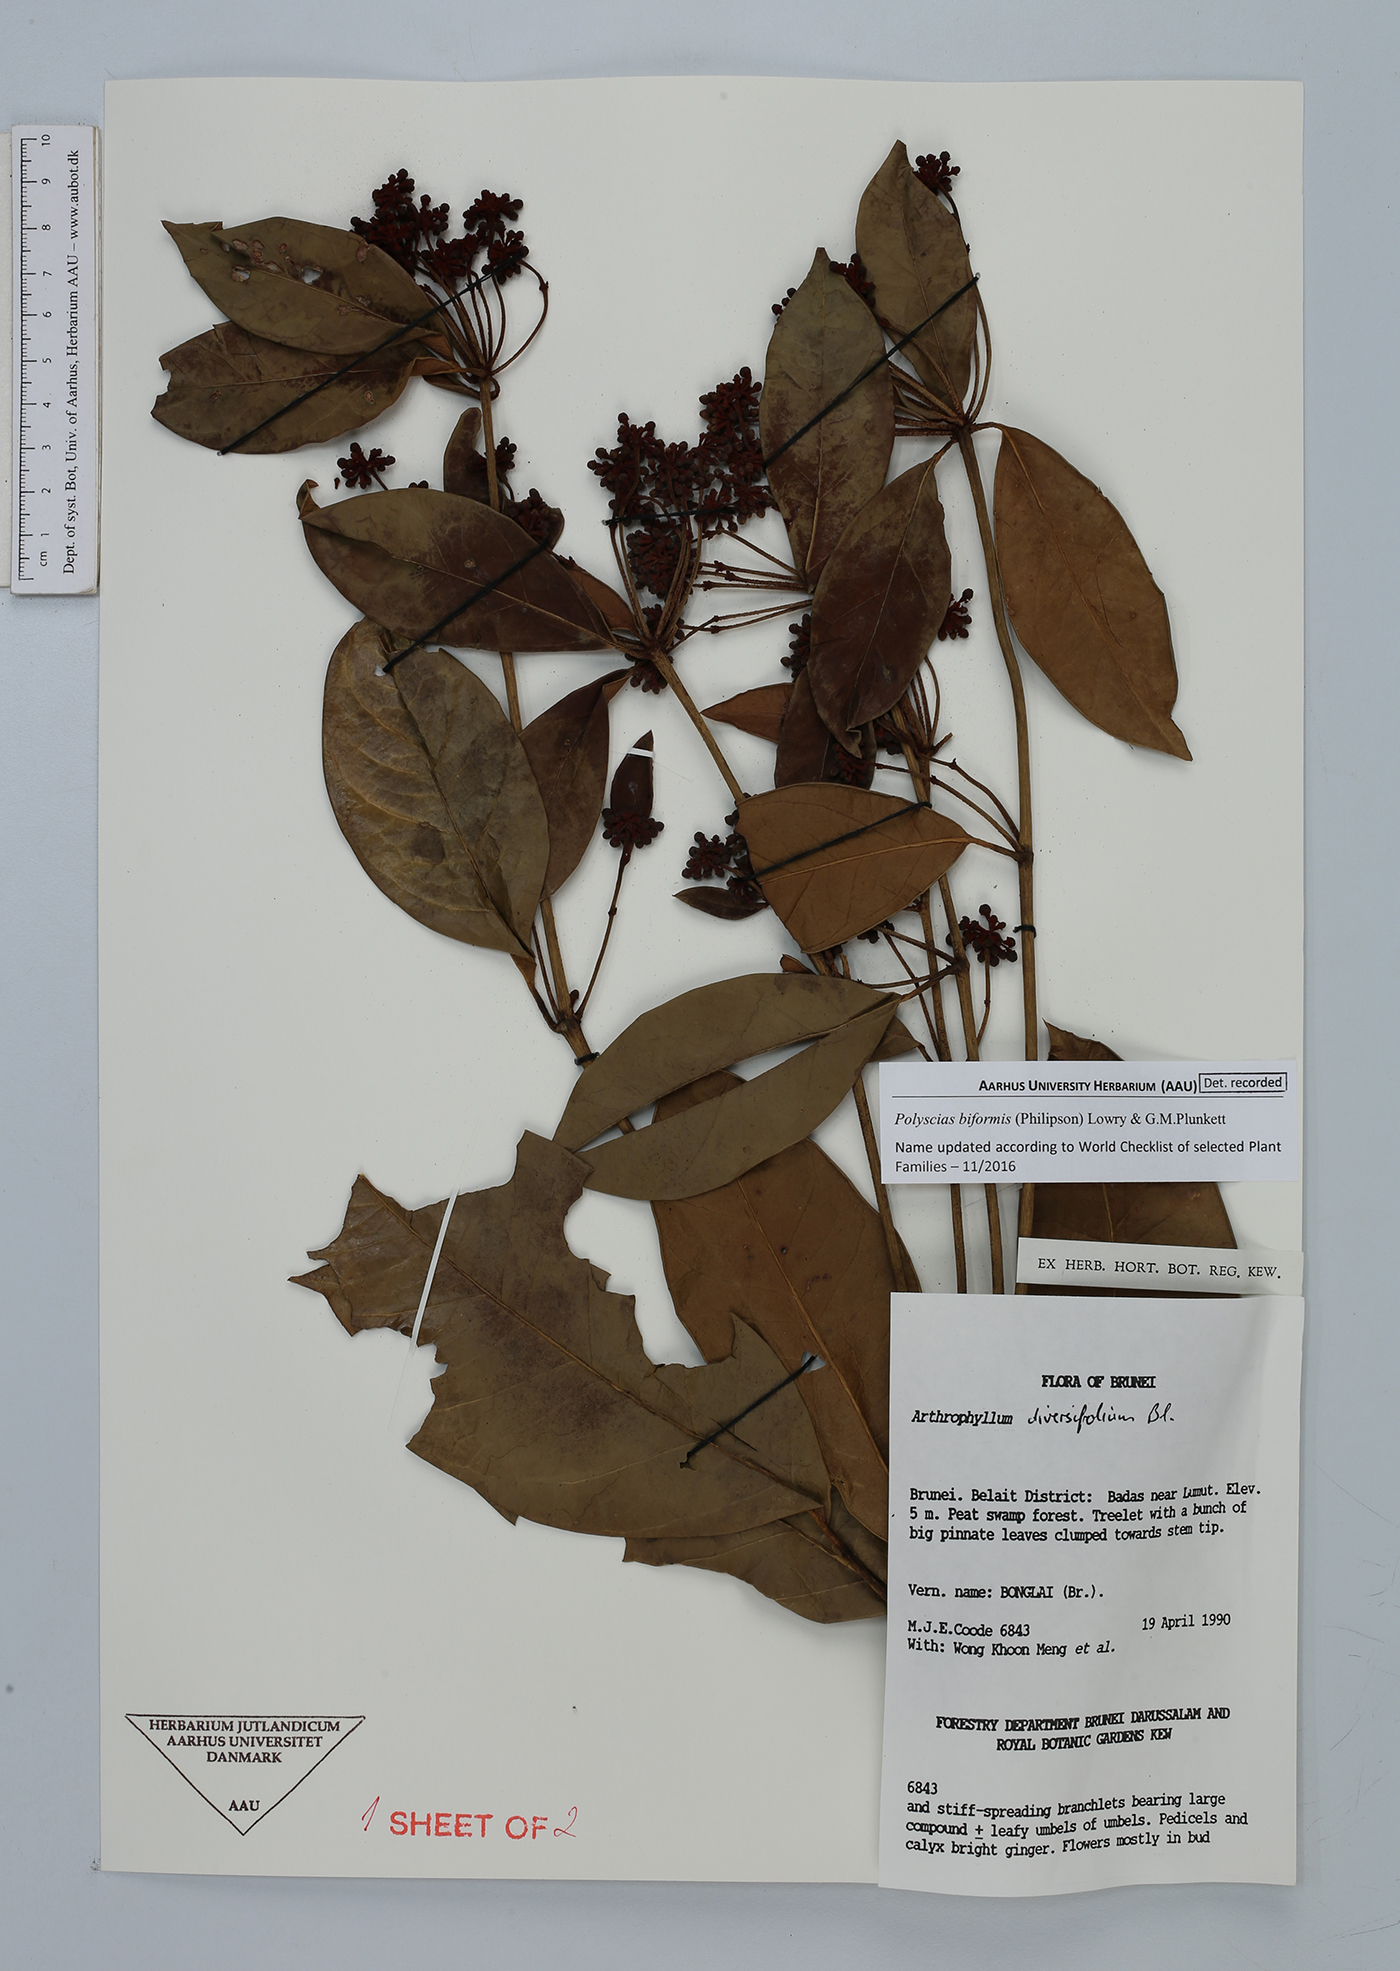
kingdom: Plantae
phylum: Tracheophyta
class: Magnoliopsida
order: Apiales
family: Araliaceae
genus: Polyscias
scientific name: Polyscias biformis
